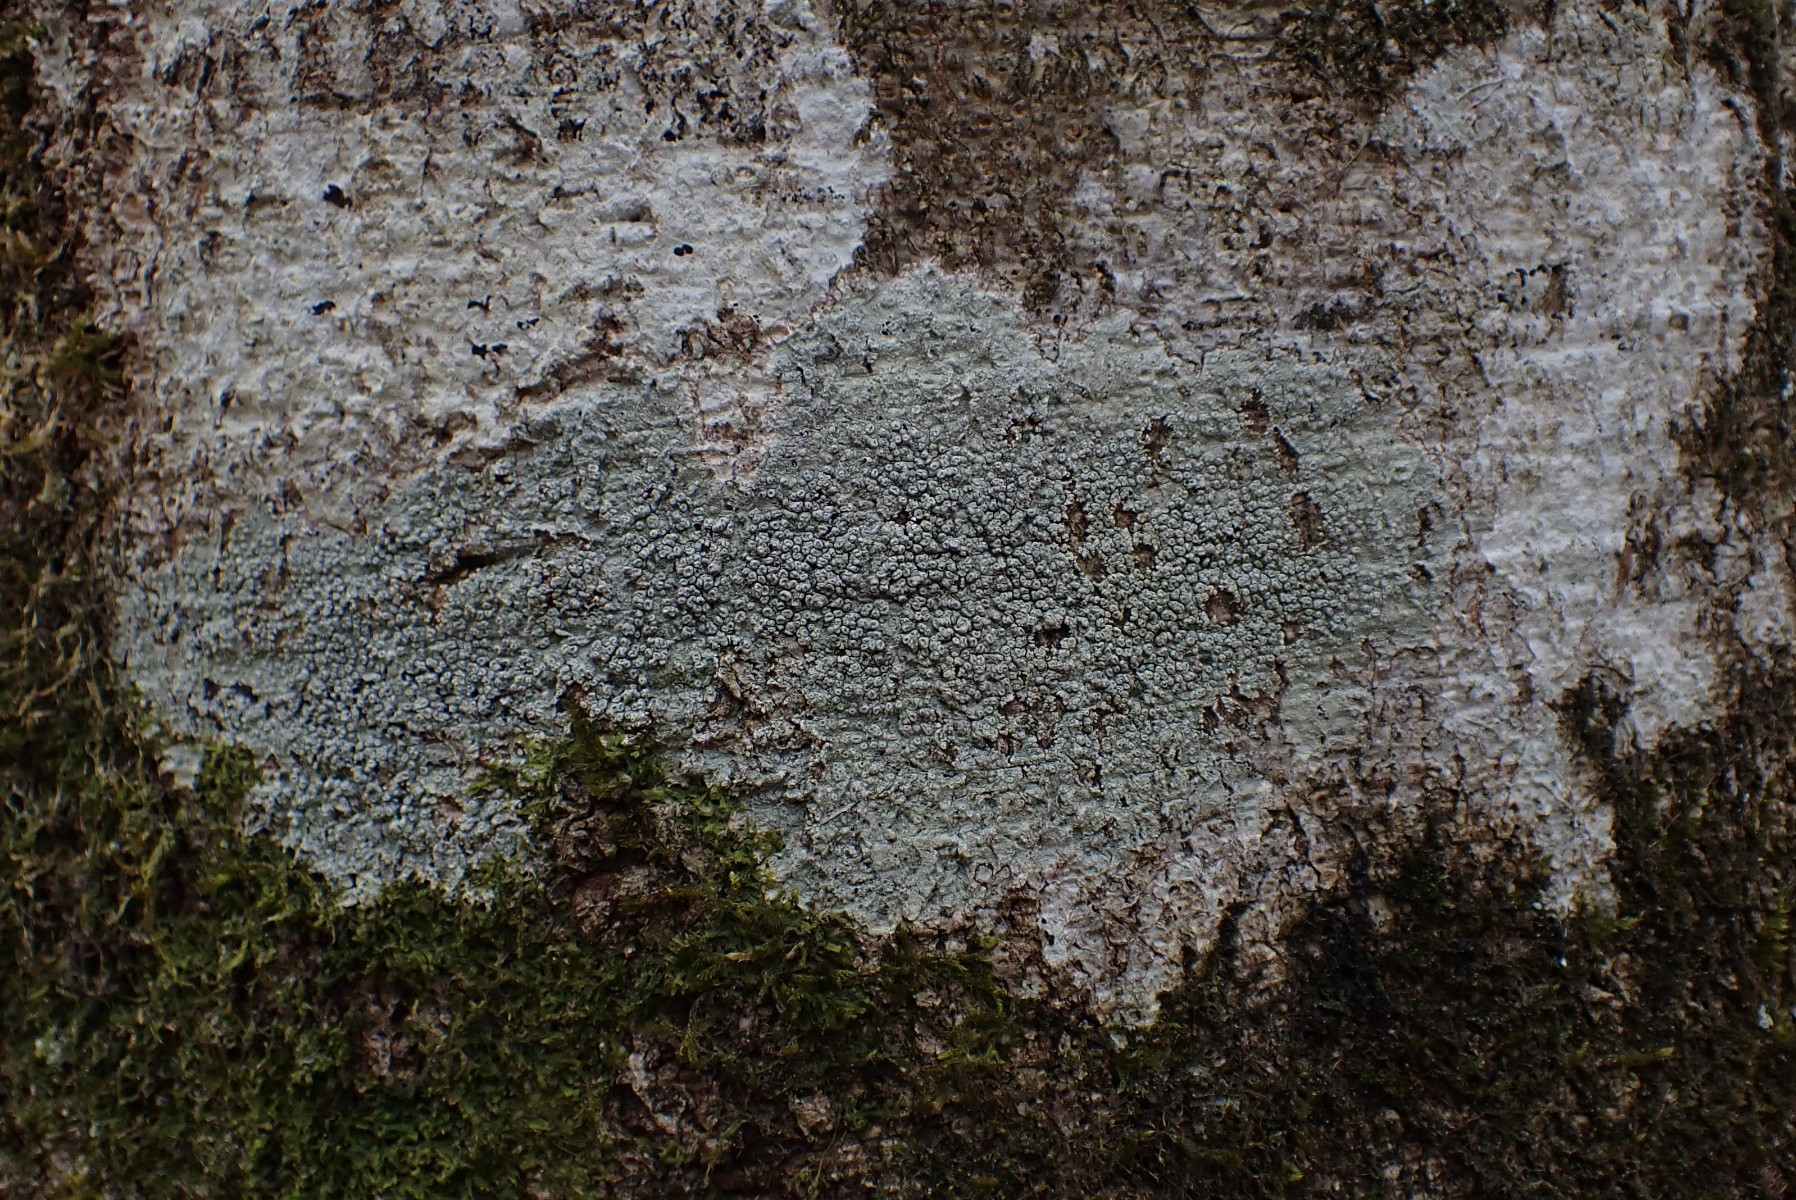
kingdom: Fungi
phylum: Ascomycota
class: Lecanoromycetes
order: Pertusariales
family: Pertusariaceae
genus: Pertusaria
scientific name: Pertusaria hymenea
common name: åben prikvortelav
